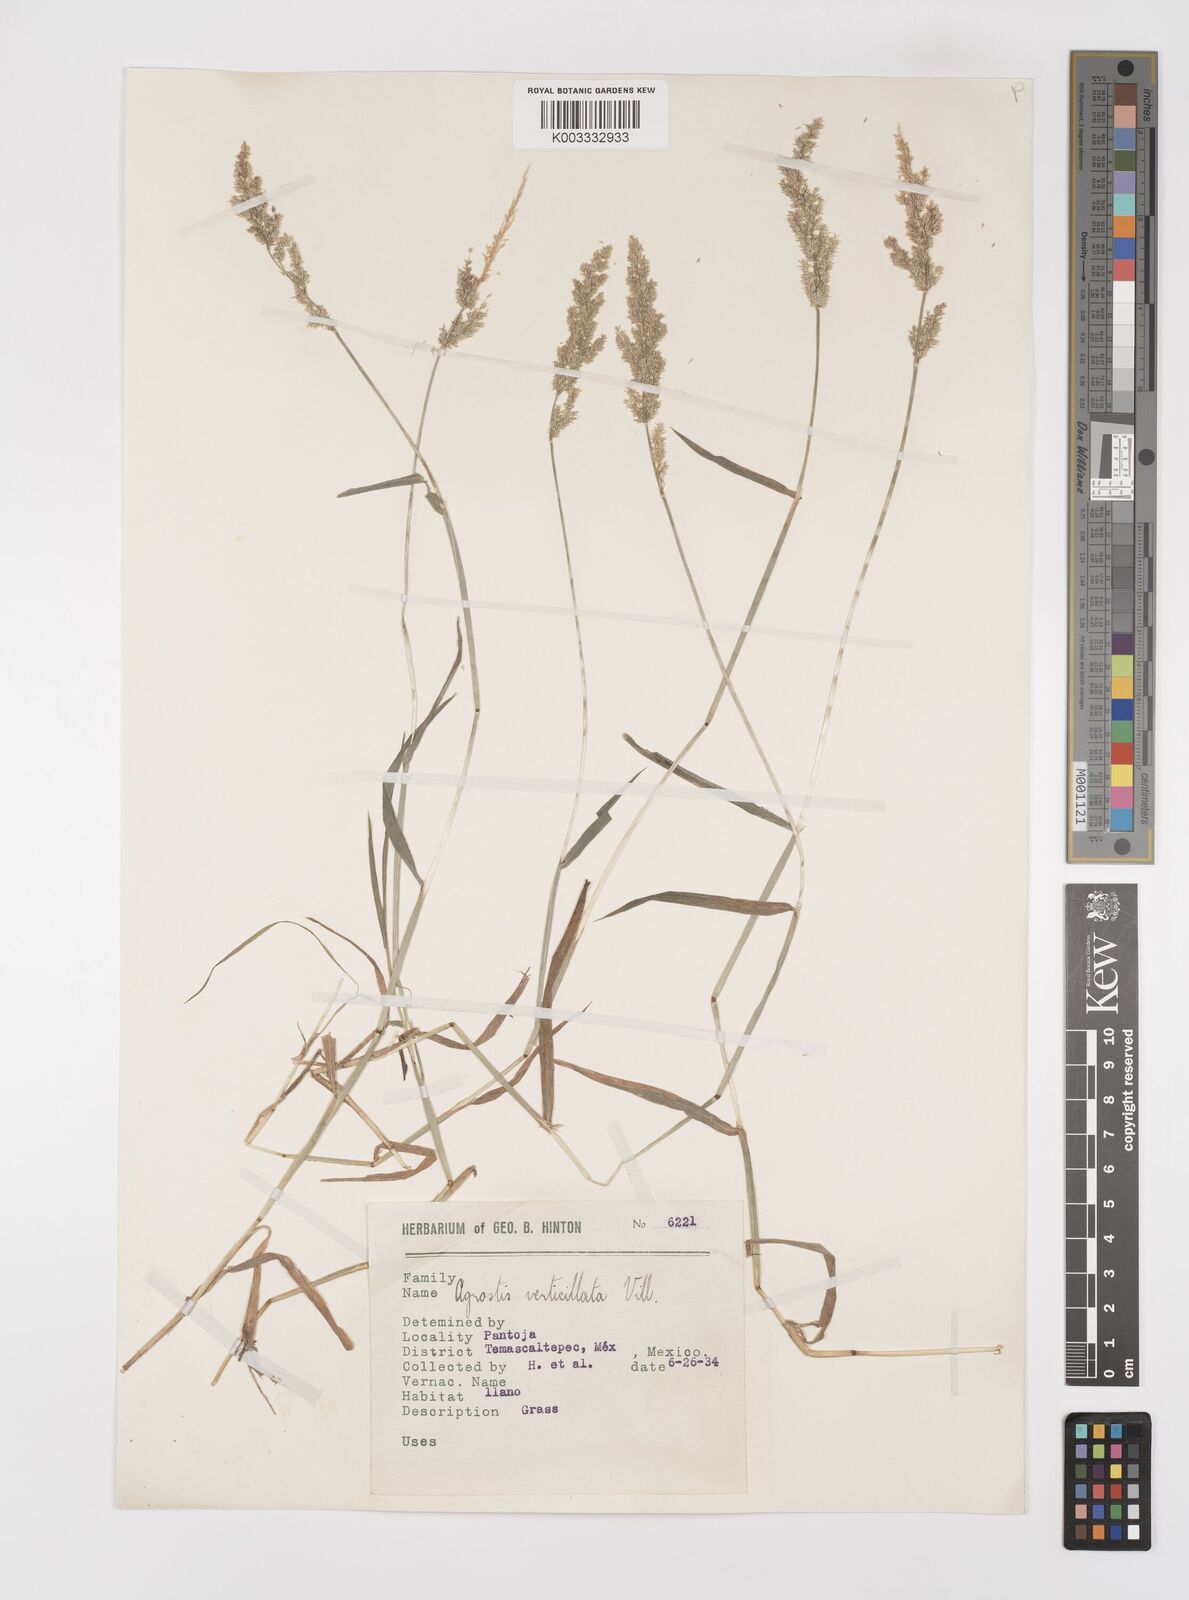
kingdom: Plantae
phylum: Tracheophyta
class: Liliopsida
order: Poales
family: Poaceae
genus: Polypogon
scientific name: Polypogon viridis
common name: Water bent
